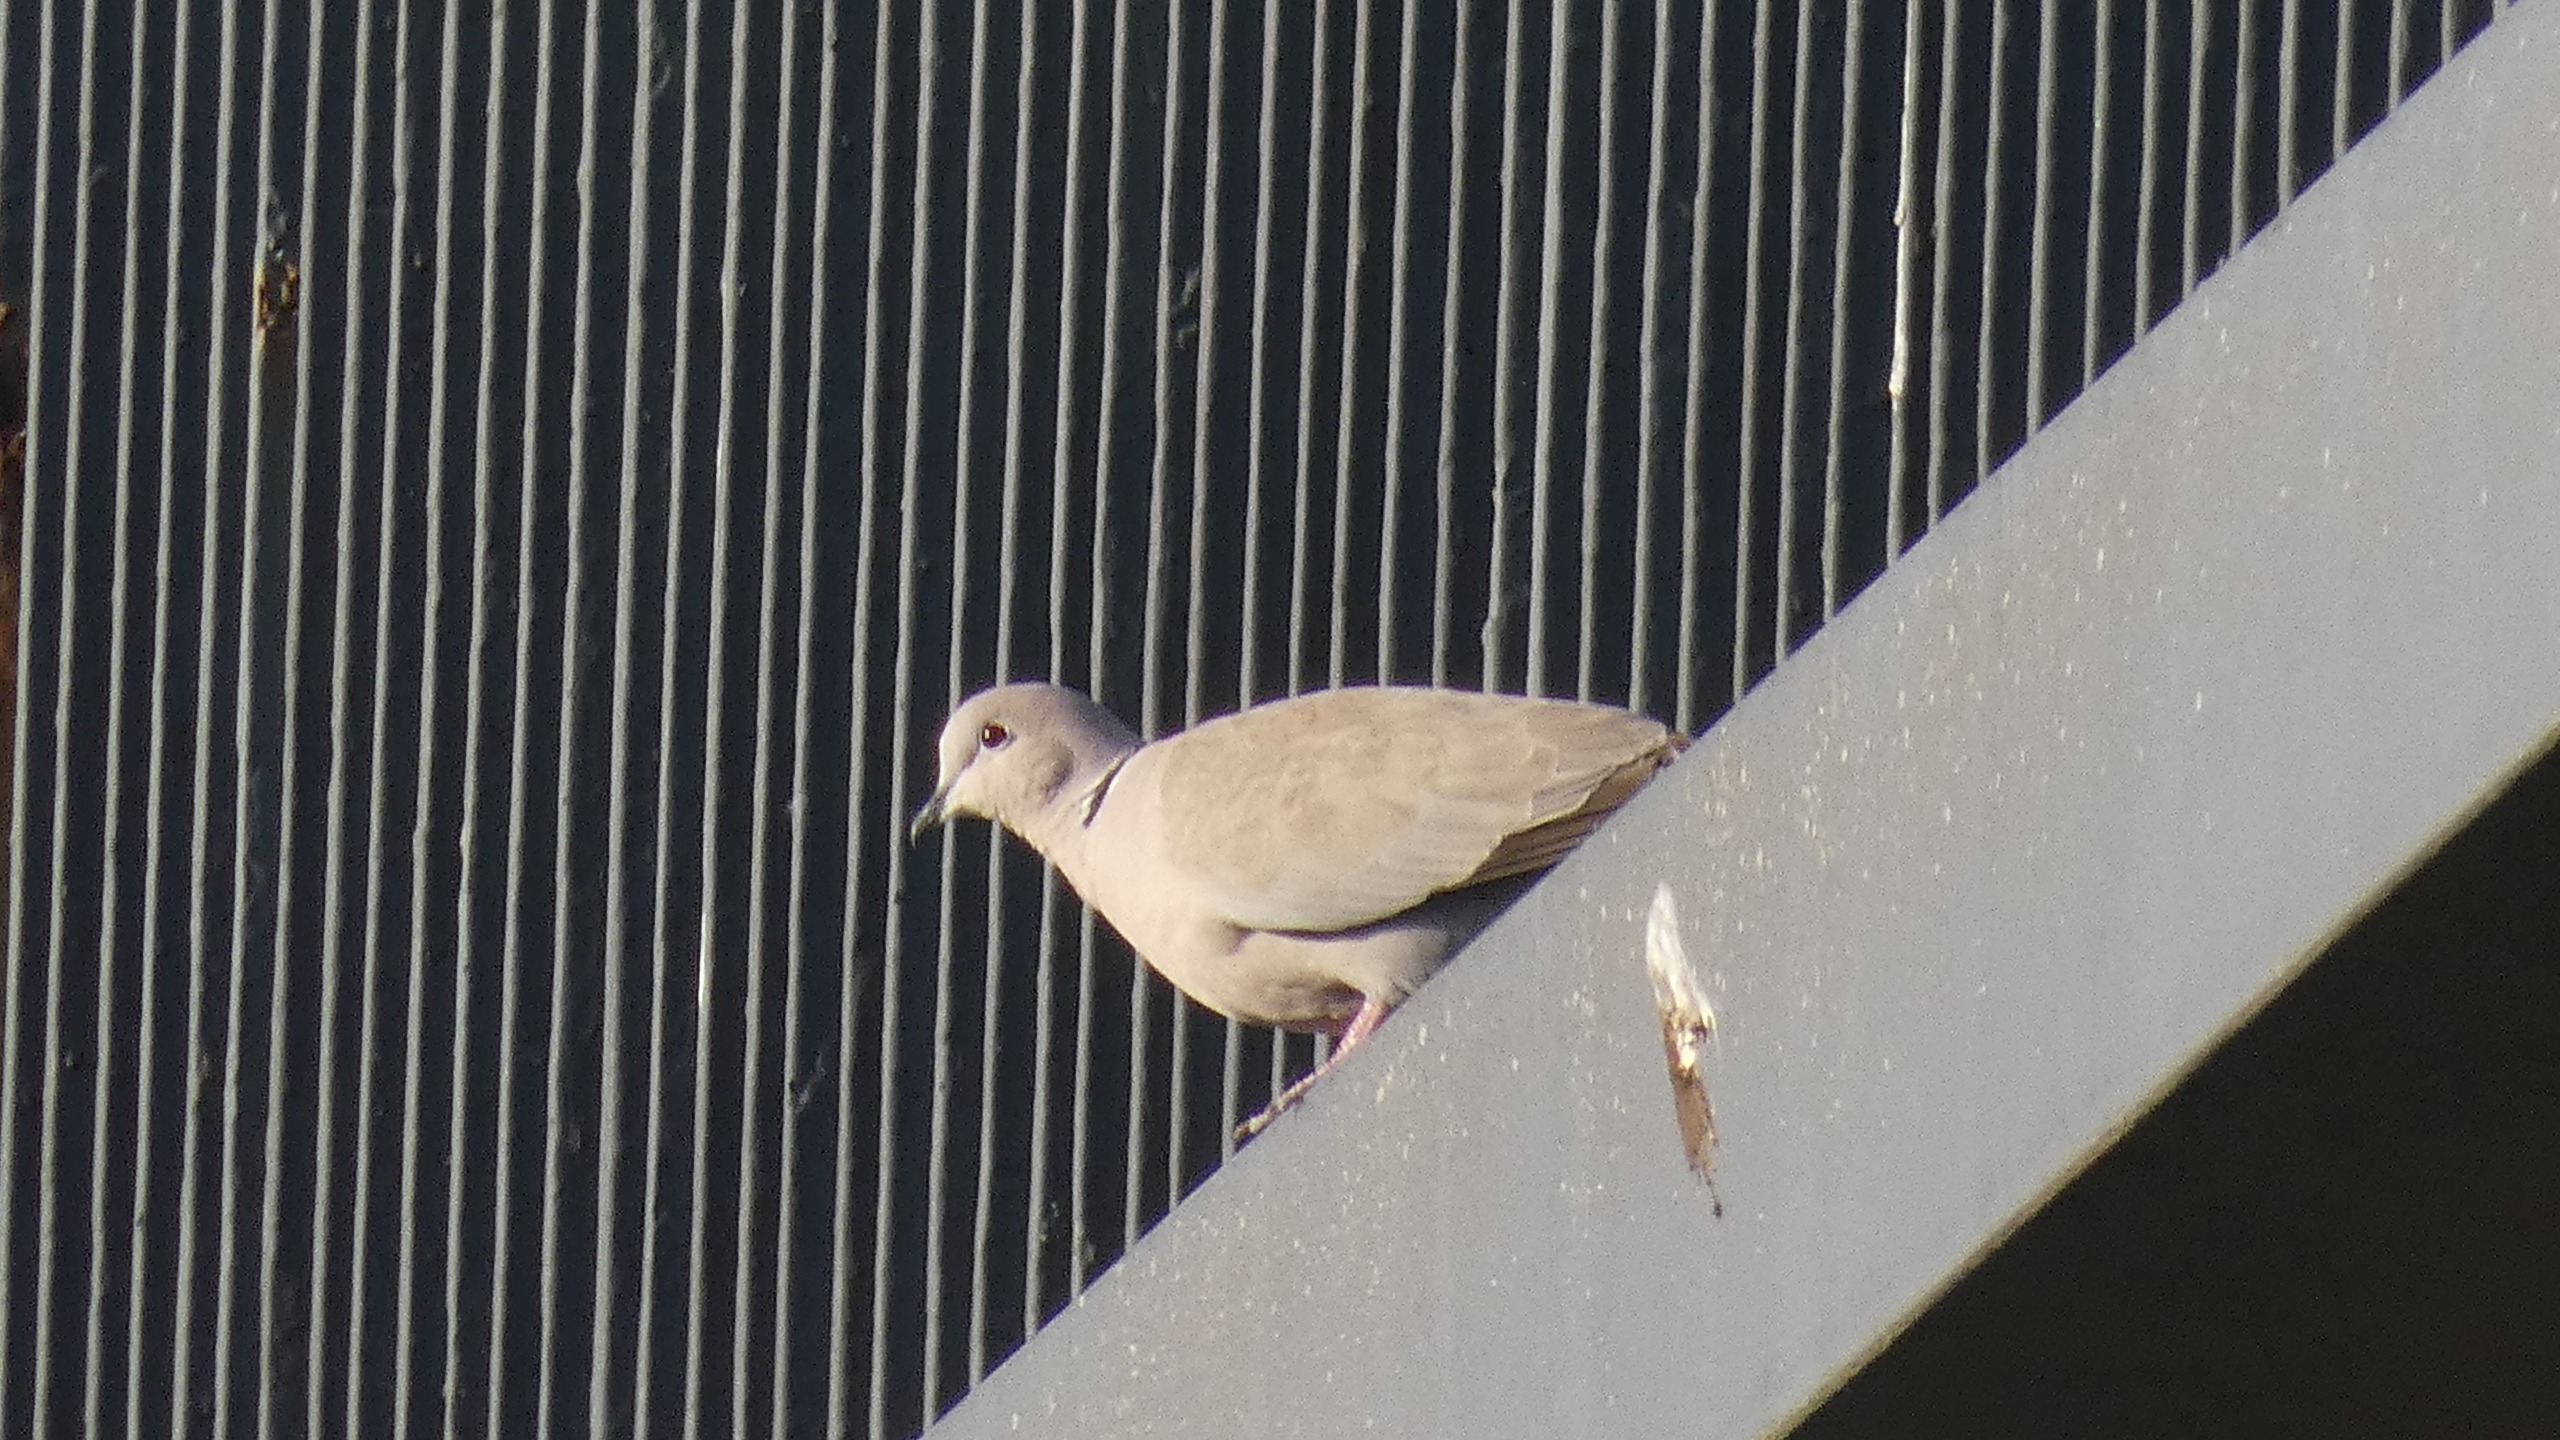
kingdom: Animalia
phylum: Chordata
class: Aves
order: Columbiformes
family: Columbidae
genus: Streptopelia
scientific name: Streptopelia decaocto
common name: Tyrkerdue
